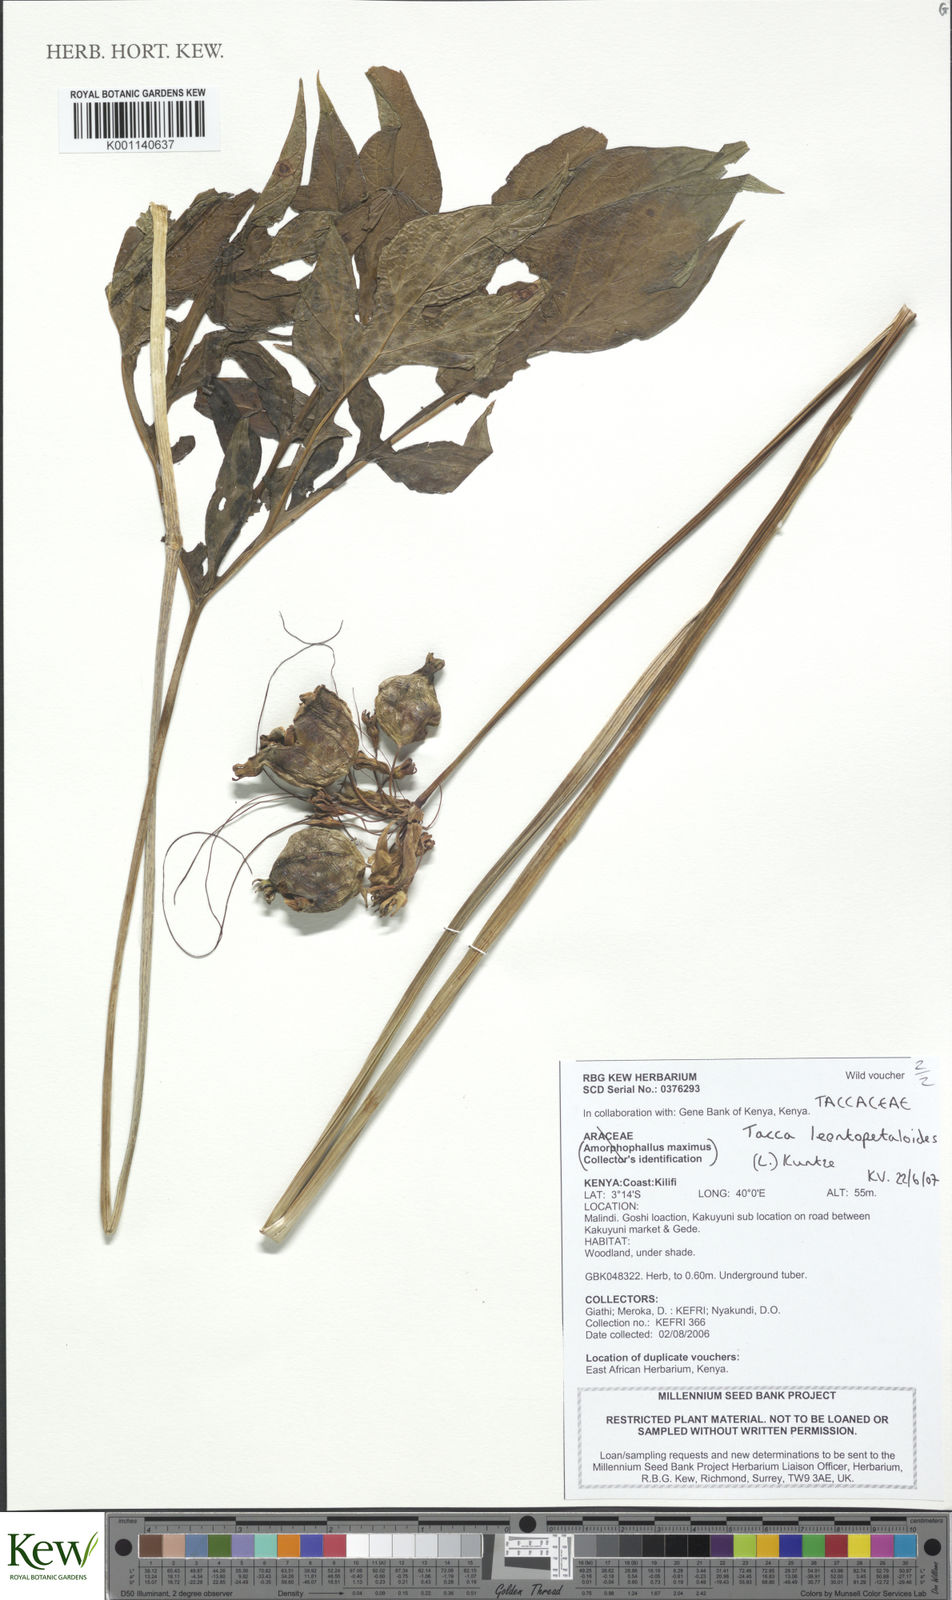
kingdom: Plantae
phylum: Tracheophyta
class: Liliopsida
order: Dioscoreales
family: Dioscoreaceae
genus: Tacca
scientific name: Tacca leontopetaloides
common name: Arrowroot
